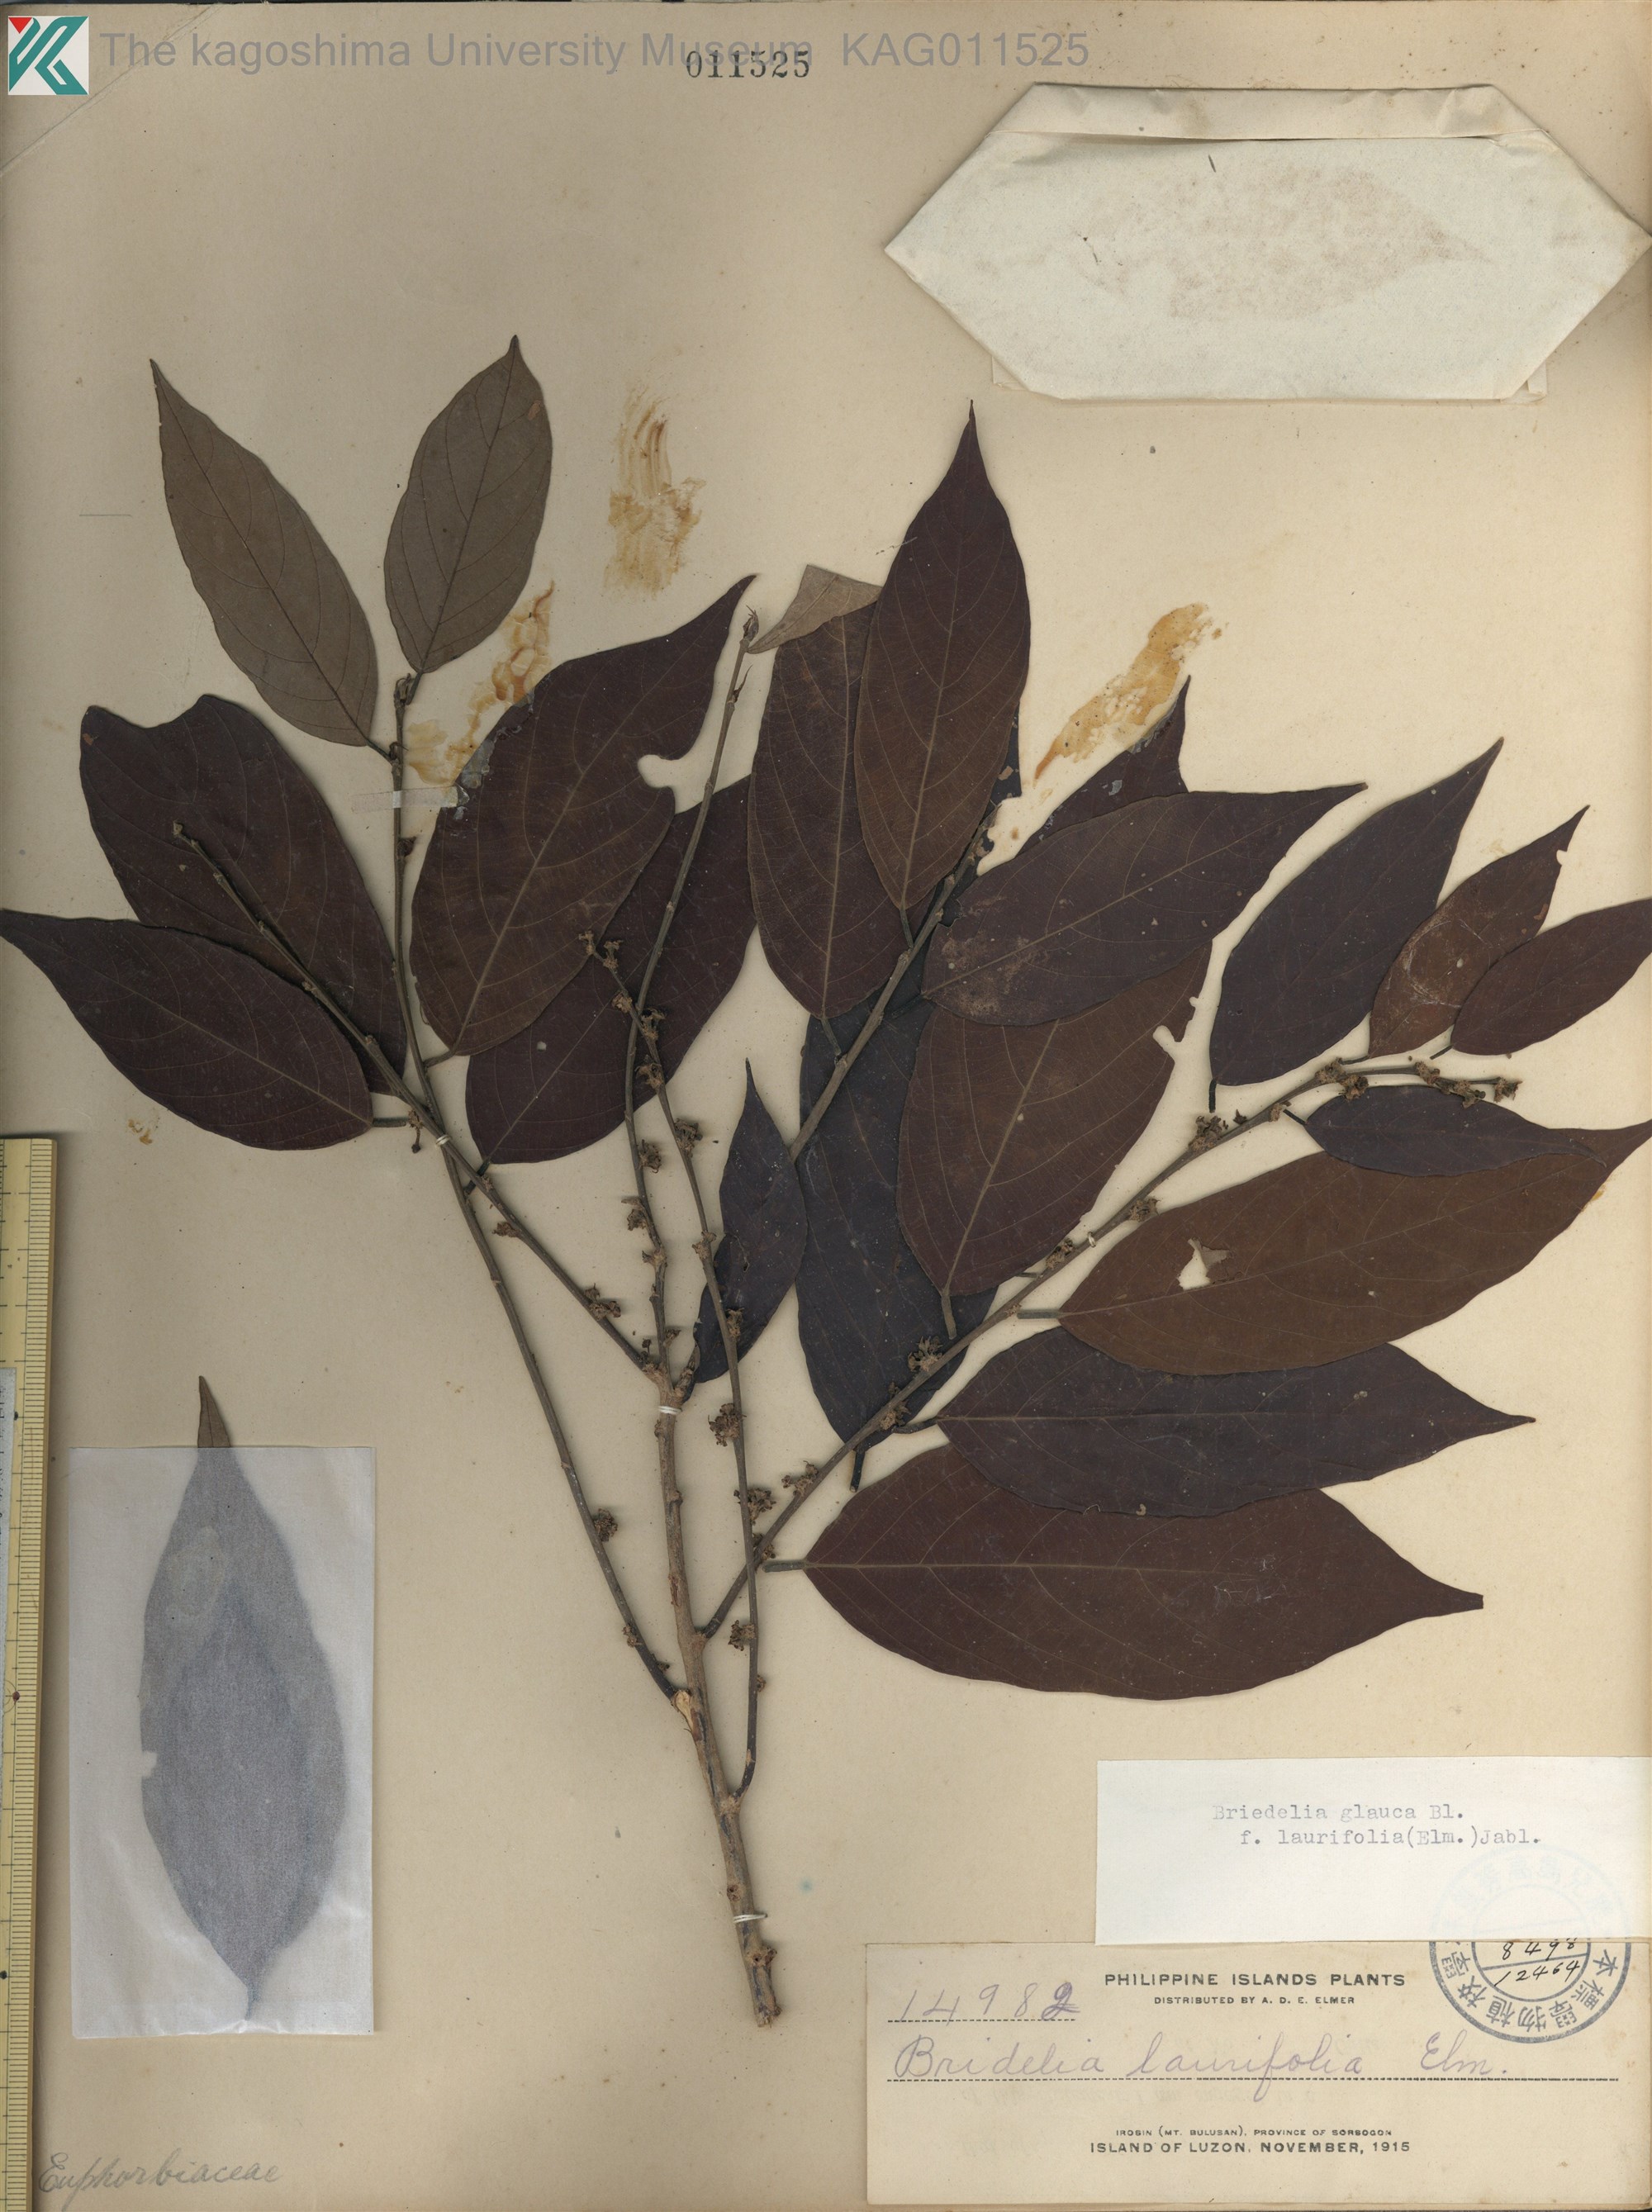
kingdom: Plantae
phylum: Tracheophyta
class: Magnoliopsida
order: Malpighiales
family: Phyllanthaceae
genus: Bridelia
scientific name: Bridelia glauca
